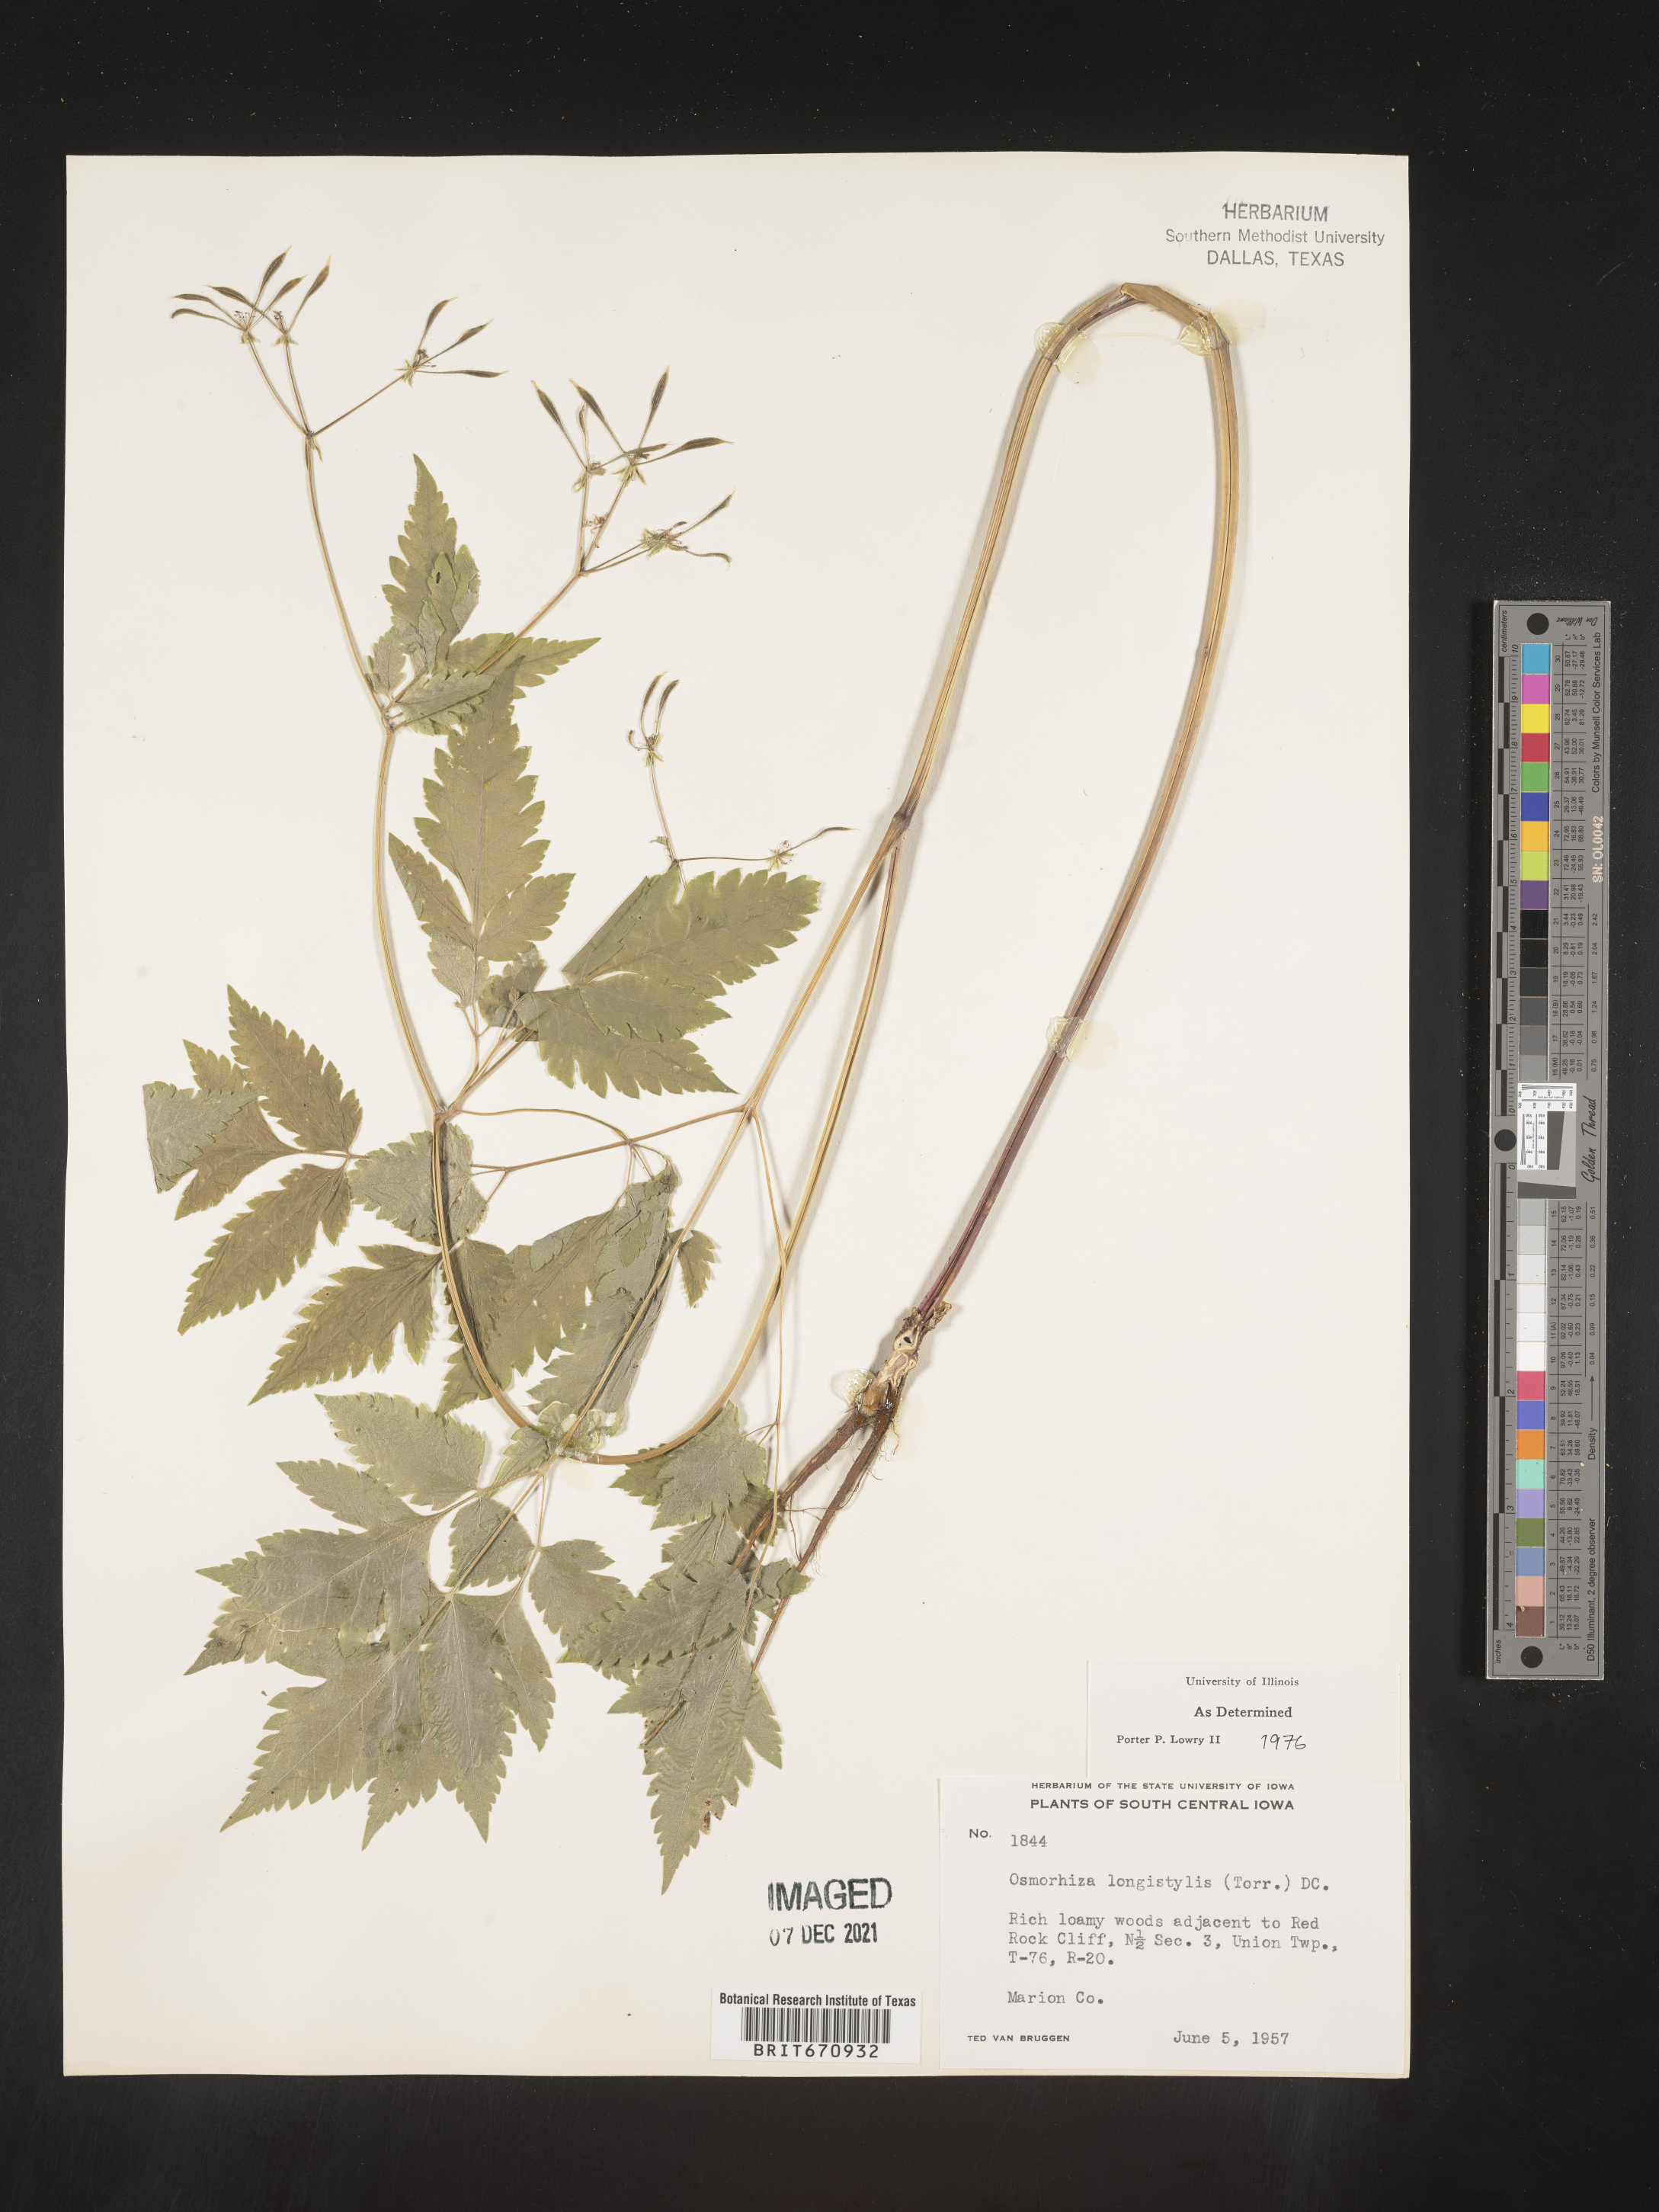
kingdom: Plantae
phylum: Tracheophyta
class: Magnoliopsida
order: Apiales
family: Apiaceae
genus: Osmorhiza
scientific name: Osmorhiza longistylis
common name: Smooth sweet cicely
